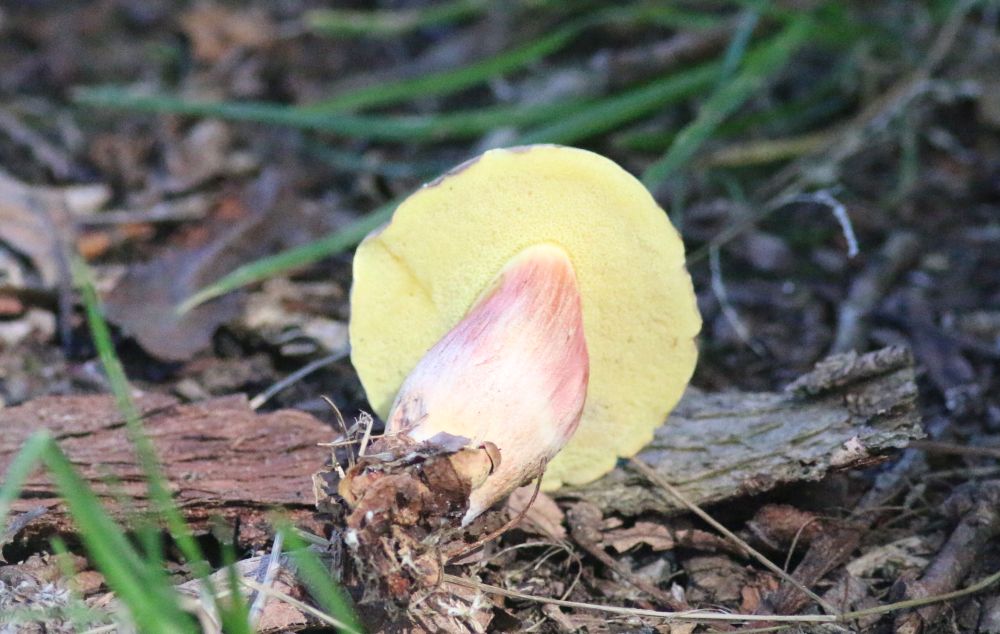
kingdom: Fungi
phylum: Basidiomycota
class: Agaricomycetes
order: Boletales
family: Boletaceae
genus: Xerocomellus
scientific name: Xerocomellus
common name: dværgrørhat
